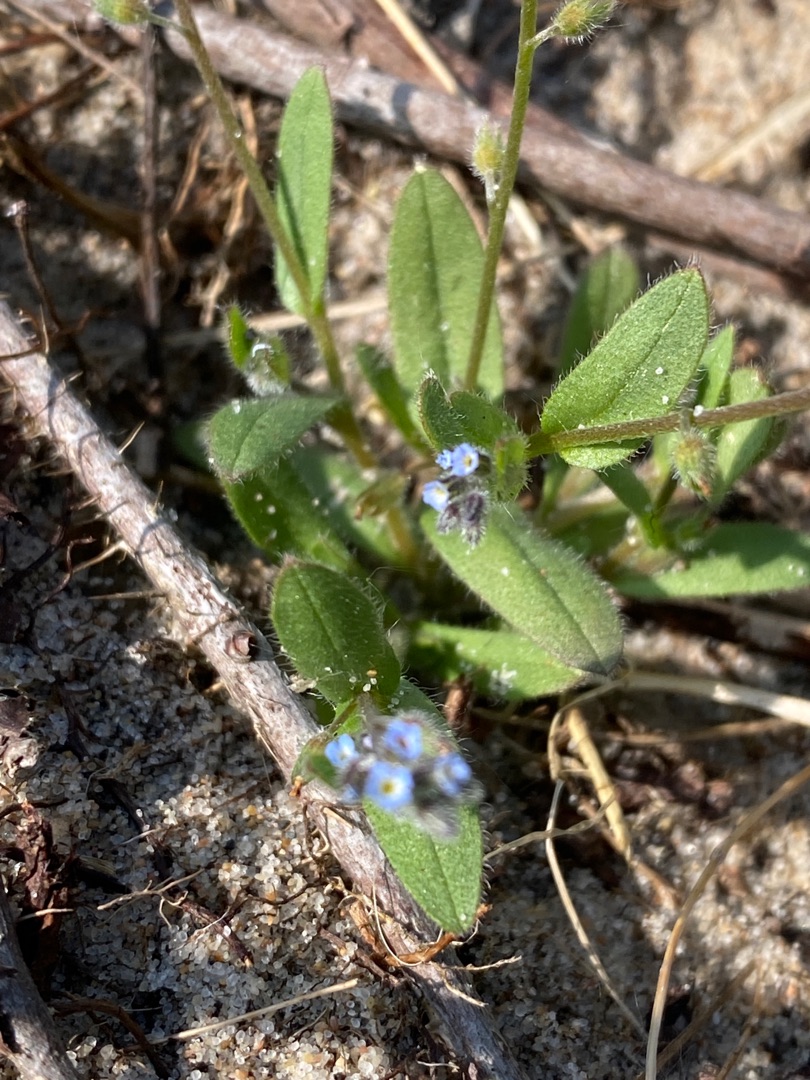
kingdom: Plantae
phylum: Tracheophyta
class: Magnoliopsida
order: Boraginales
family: Boraginaceae
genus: Myosotis
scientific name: Myosotis ramosissima
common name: Bakke-forglemmigej
